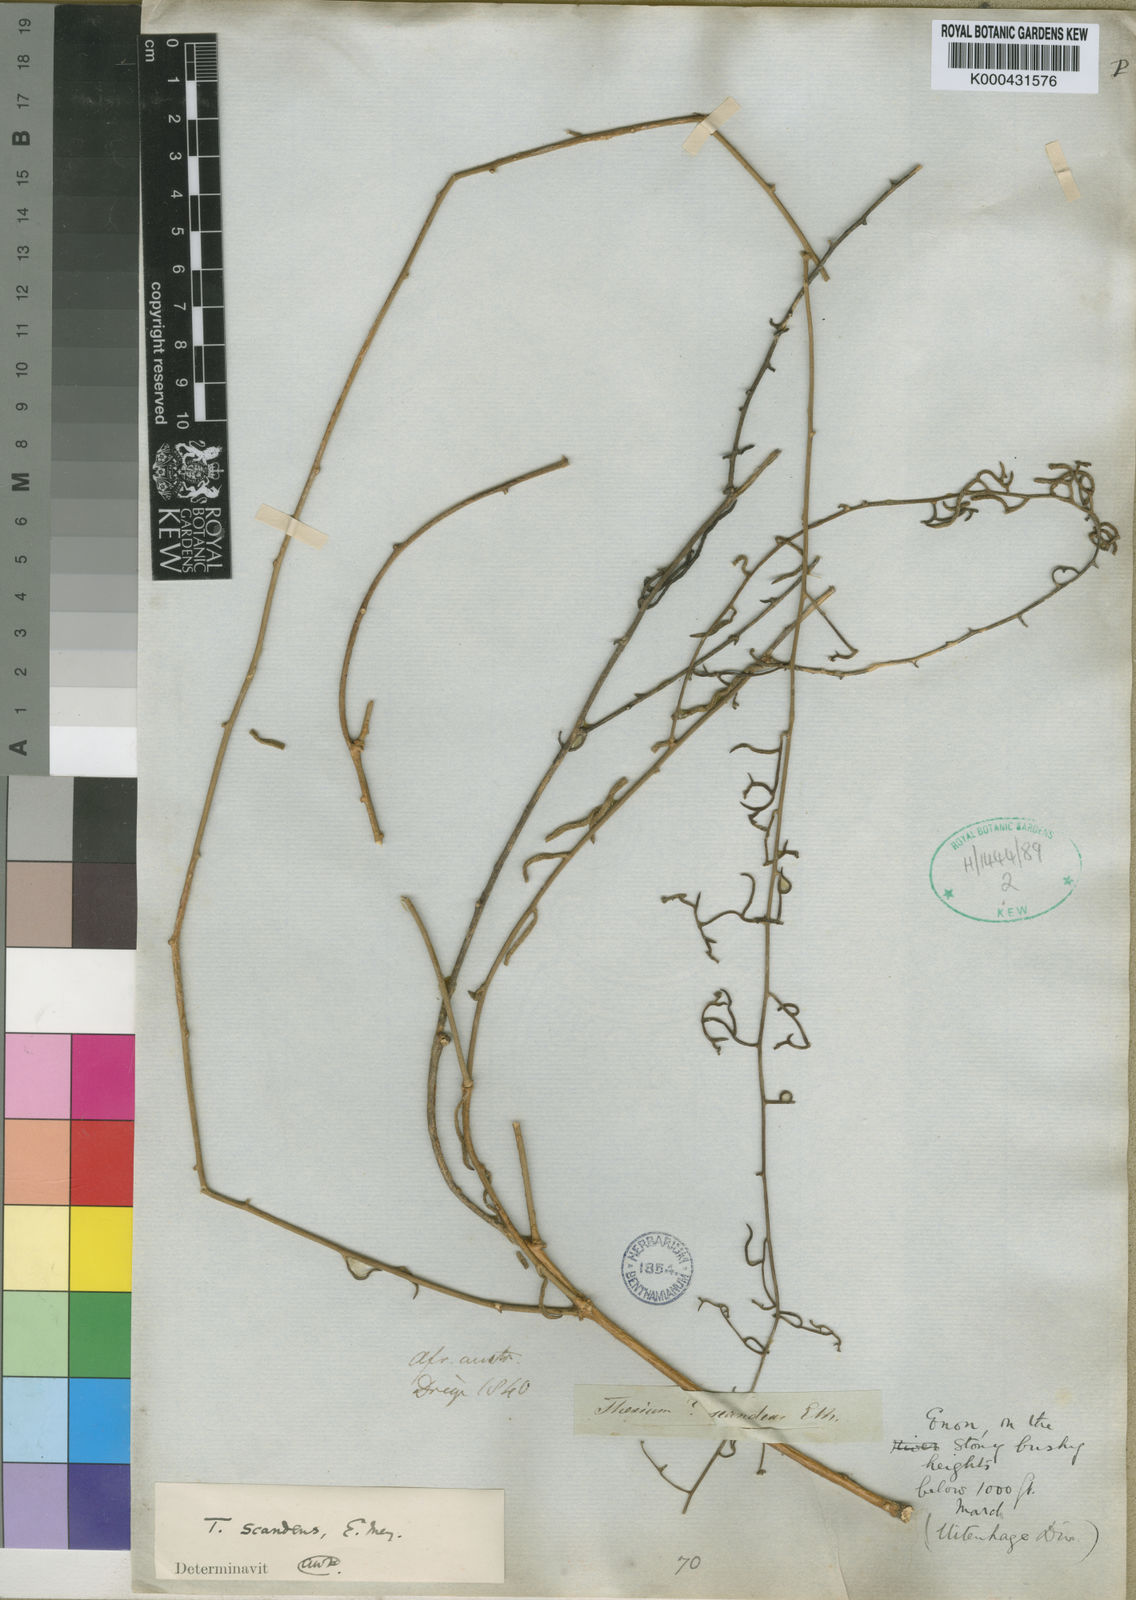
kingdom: Plantae
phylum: Tracheophyta
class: Magnoliopsida
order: Santalales
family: Thesiaceae
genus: Thesium
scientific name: Thesium
